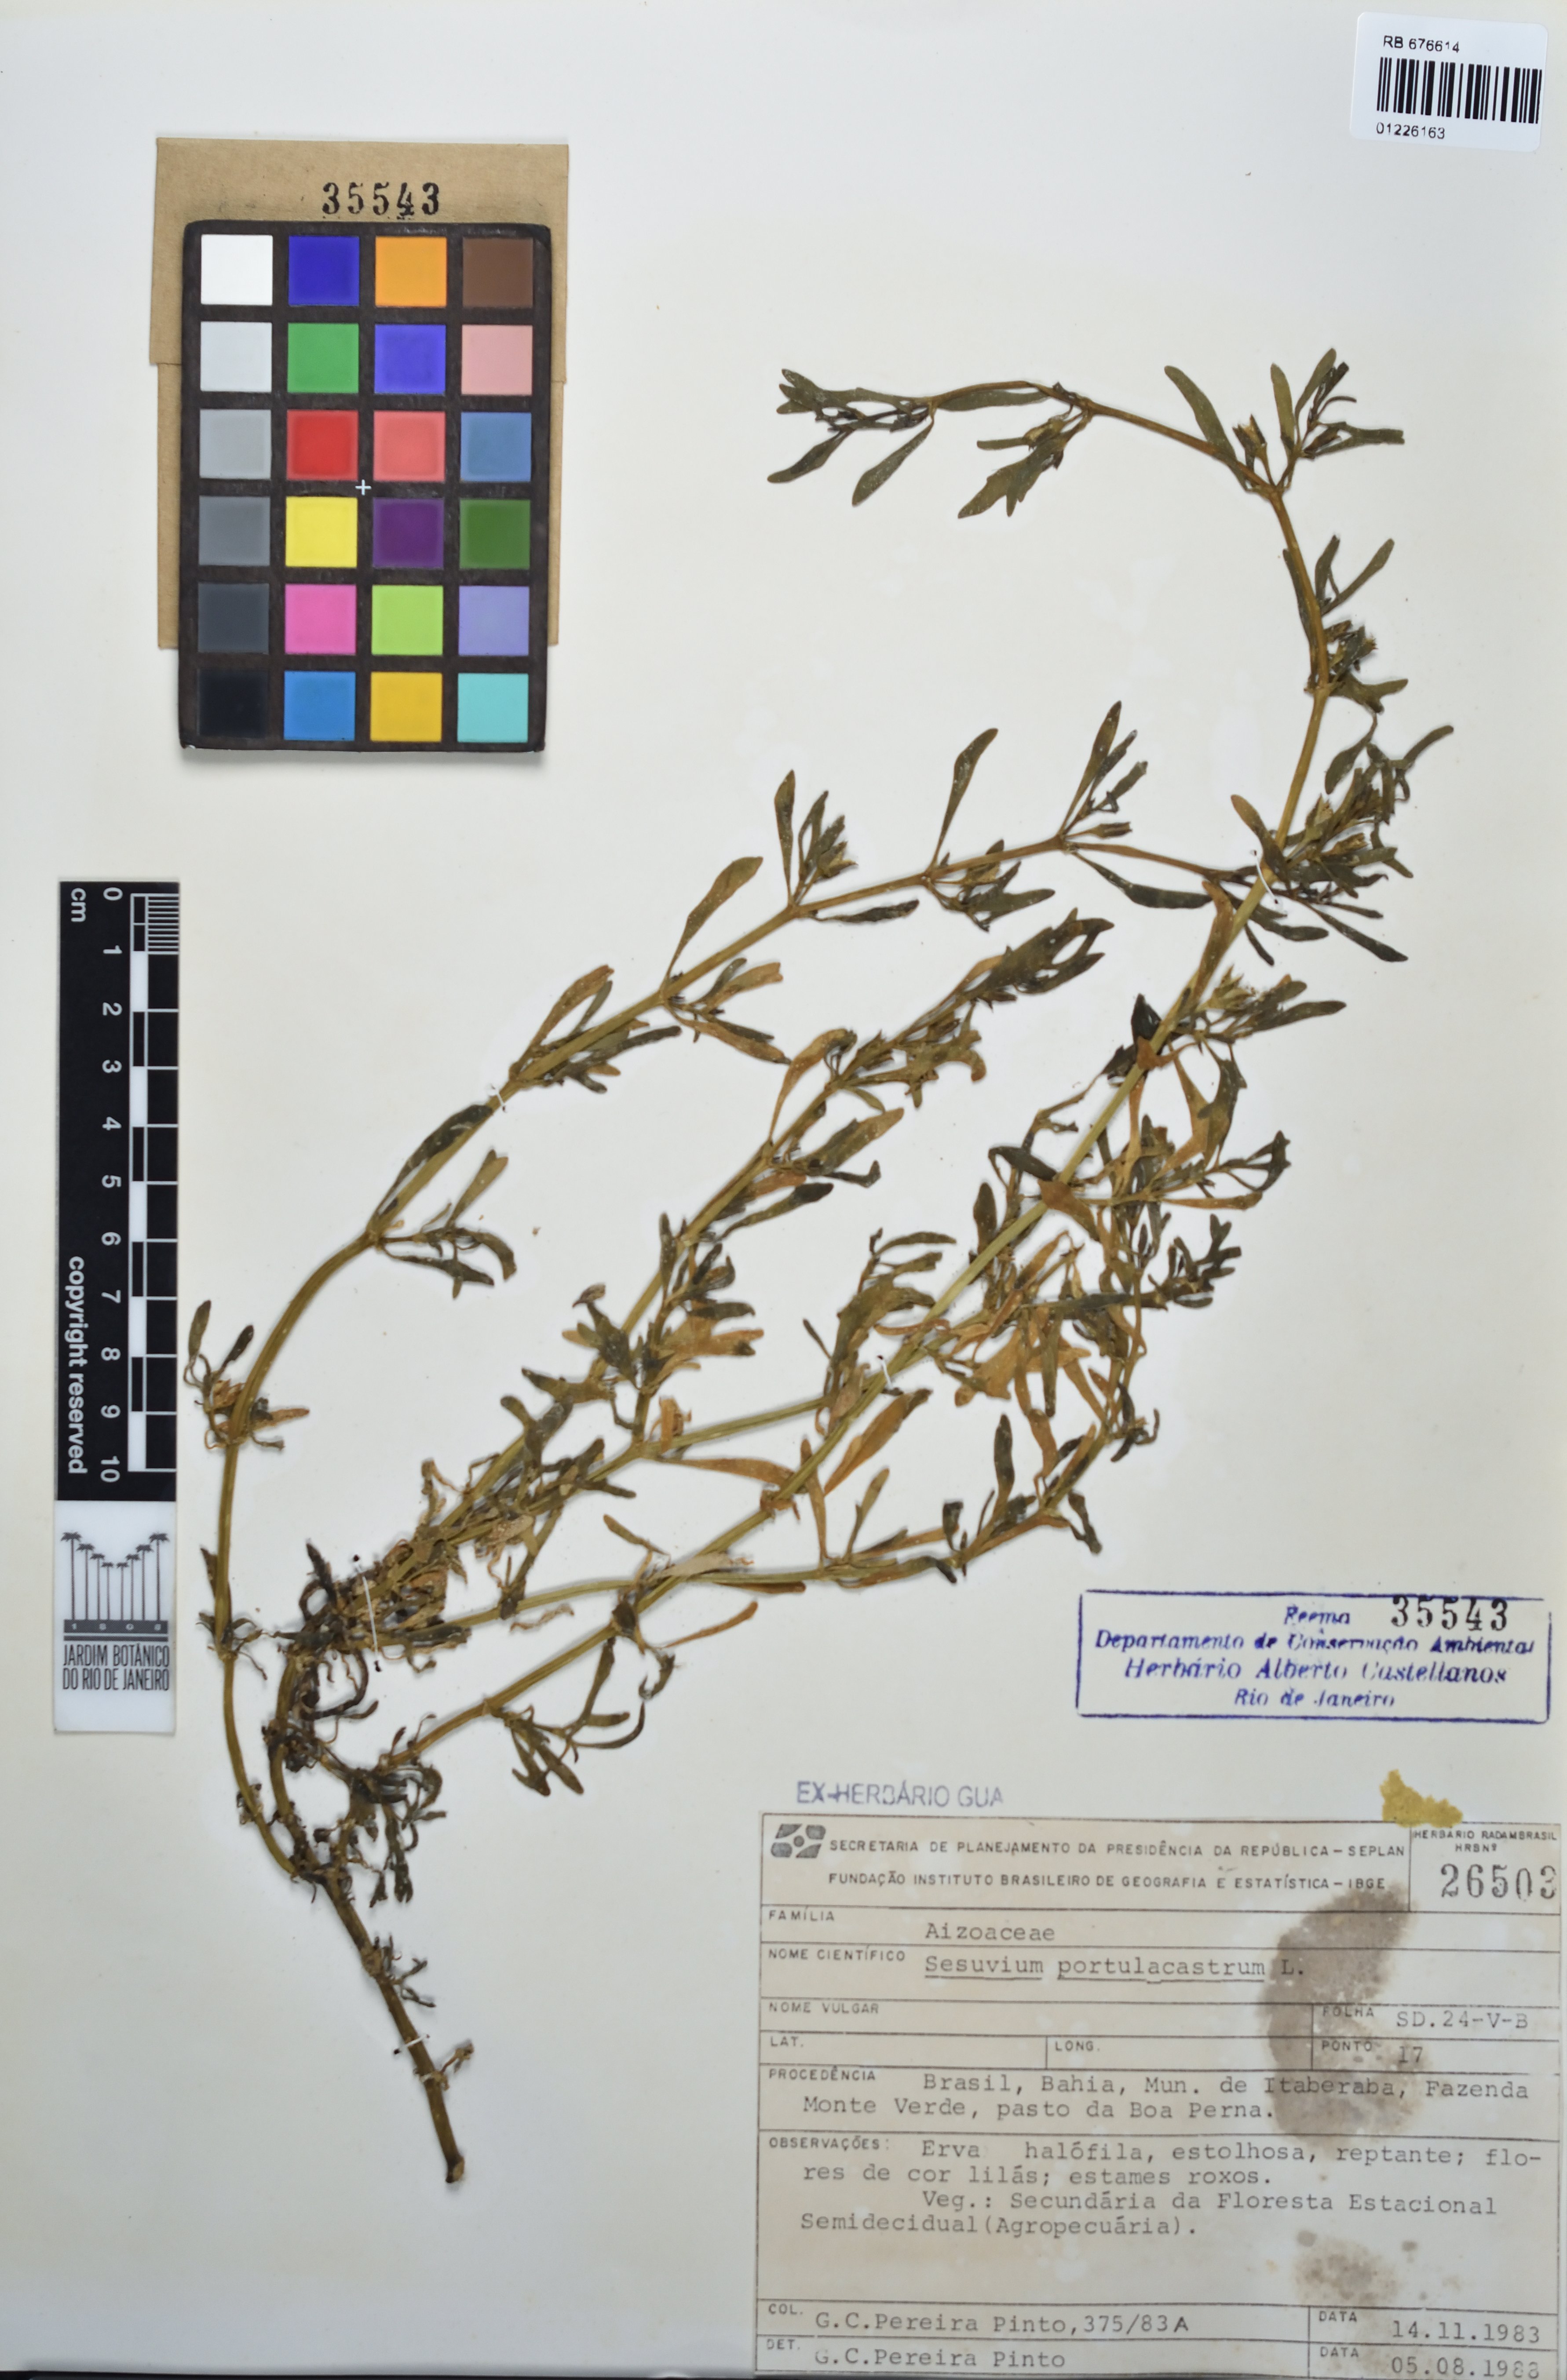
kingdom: Plantae
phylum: Tracheophyta
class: Magnoliopsida
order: Caryophyllales
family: Aizoaceae
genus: Sesuvium
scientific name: Sesuvium portulacastrum
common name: Sea-purslane
